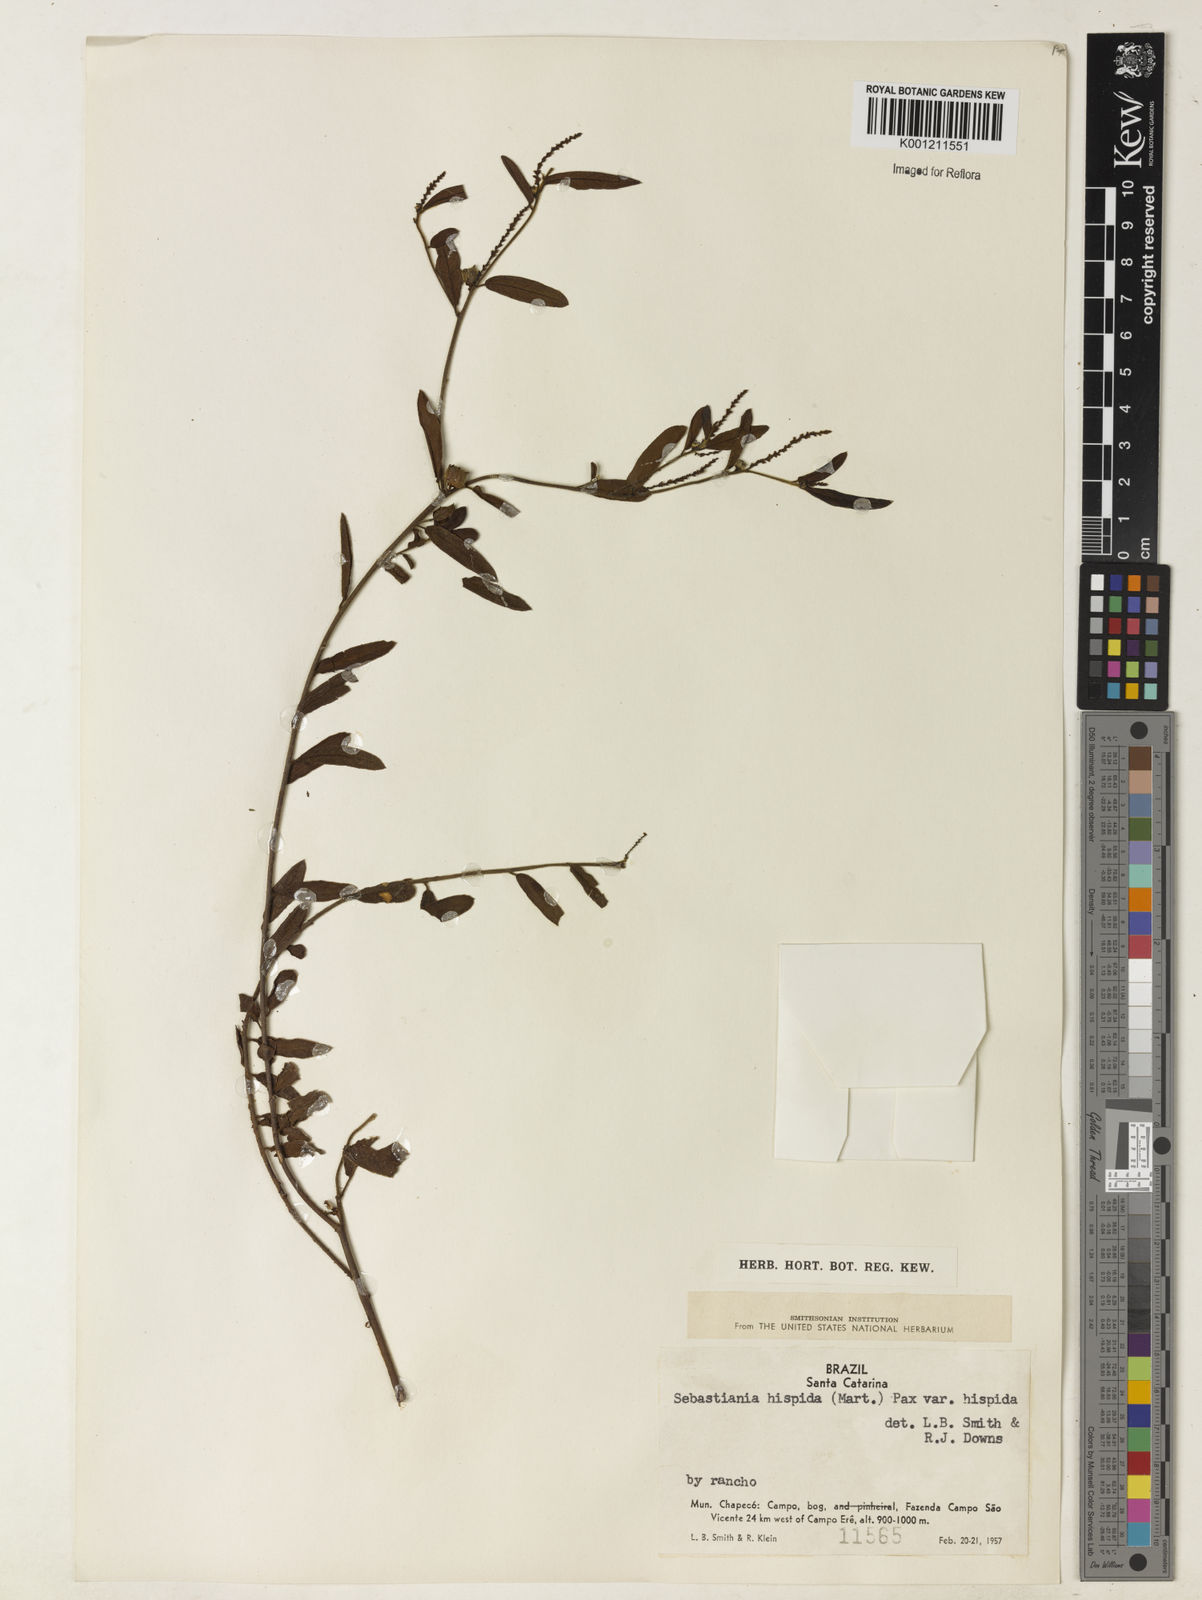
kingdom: Plantae
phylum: Tracheophyta
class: Magnoliopsida
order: Malpighiales
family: Euphorbiaceae
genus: Microstachys
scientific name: Microstachys hispida
